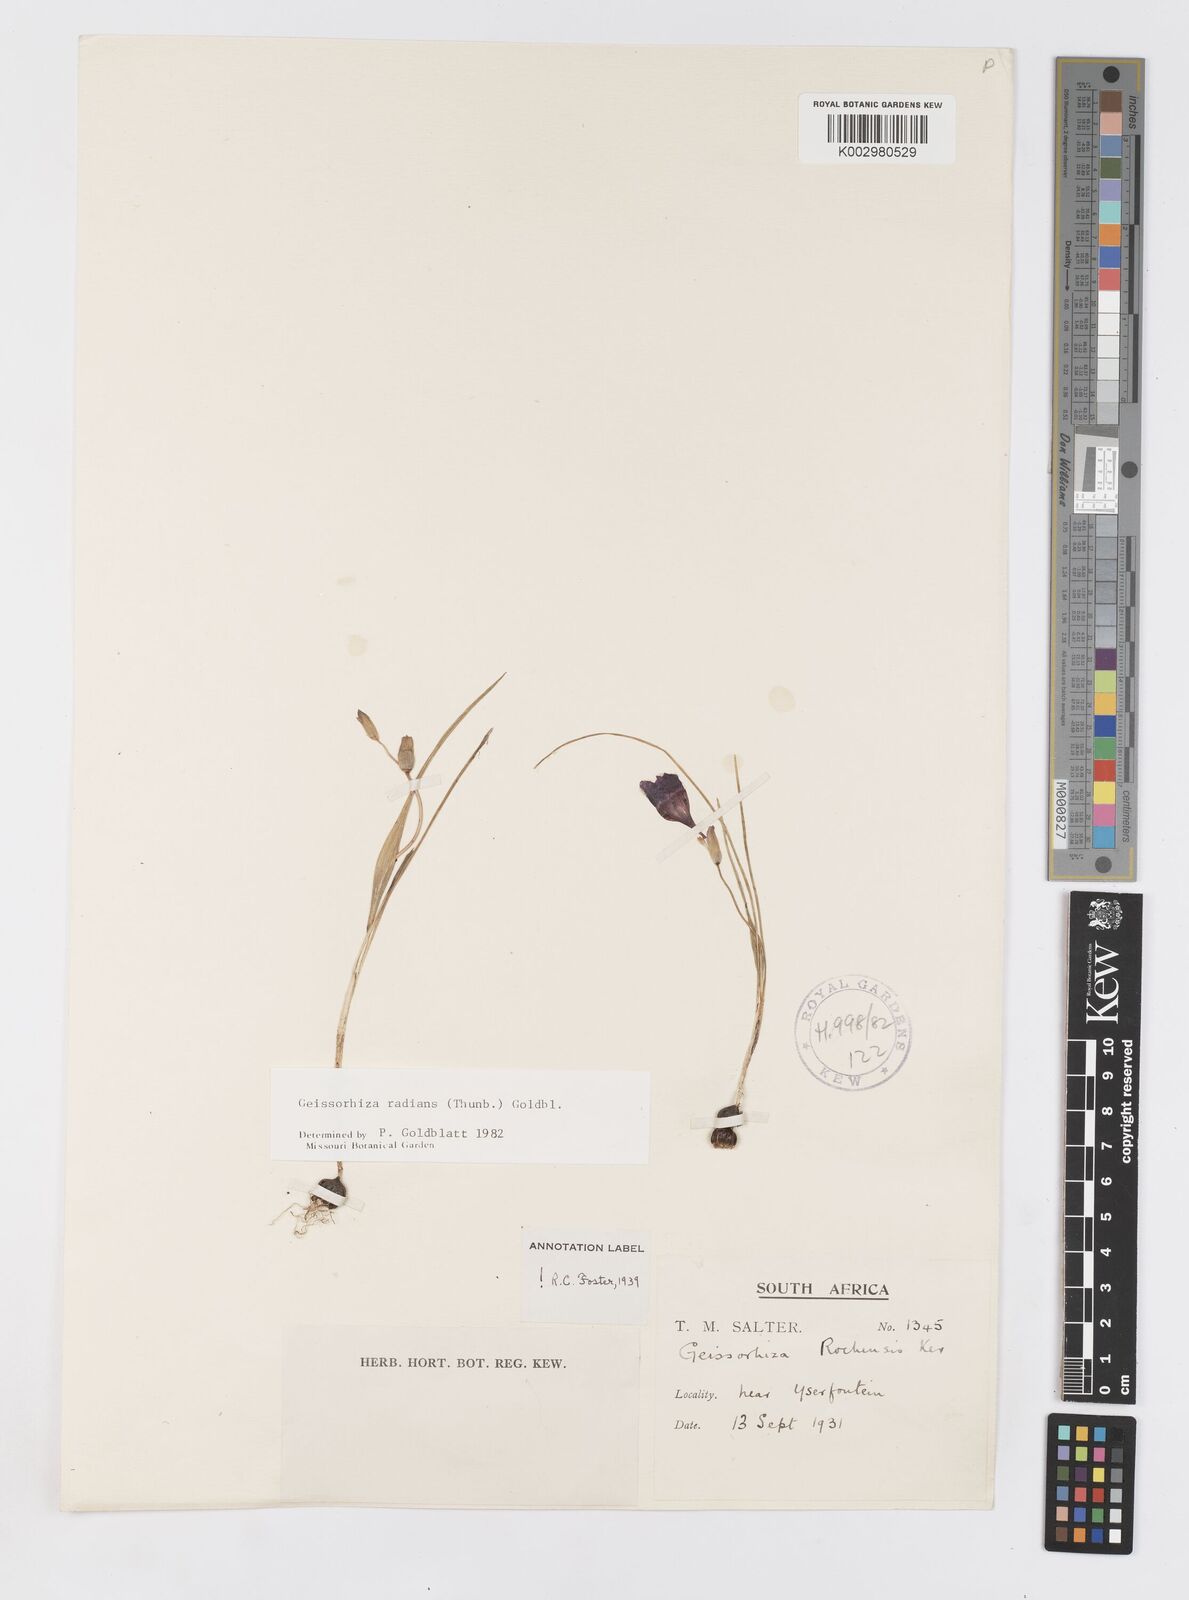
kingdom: Plantae
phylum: Tracheophyta
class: Liliopsida
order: Asparagales
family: Iridaceae
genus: Geissorhiza
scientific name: Geissorhiza radians
